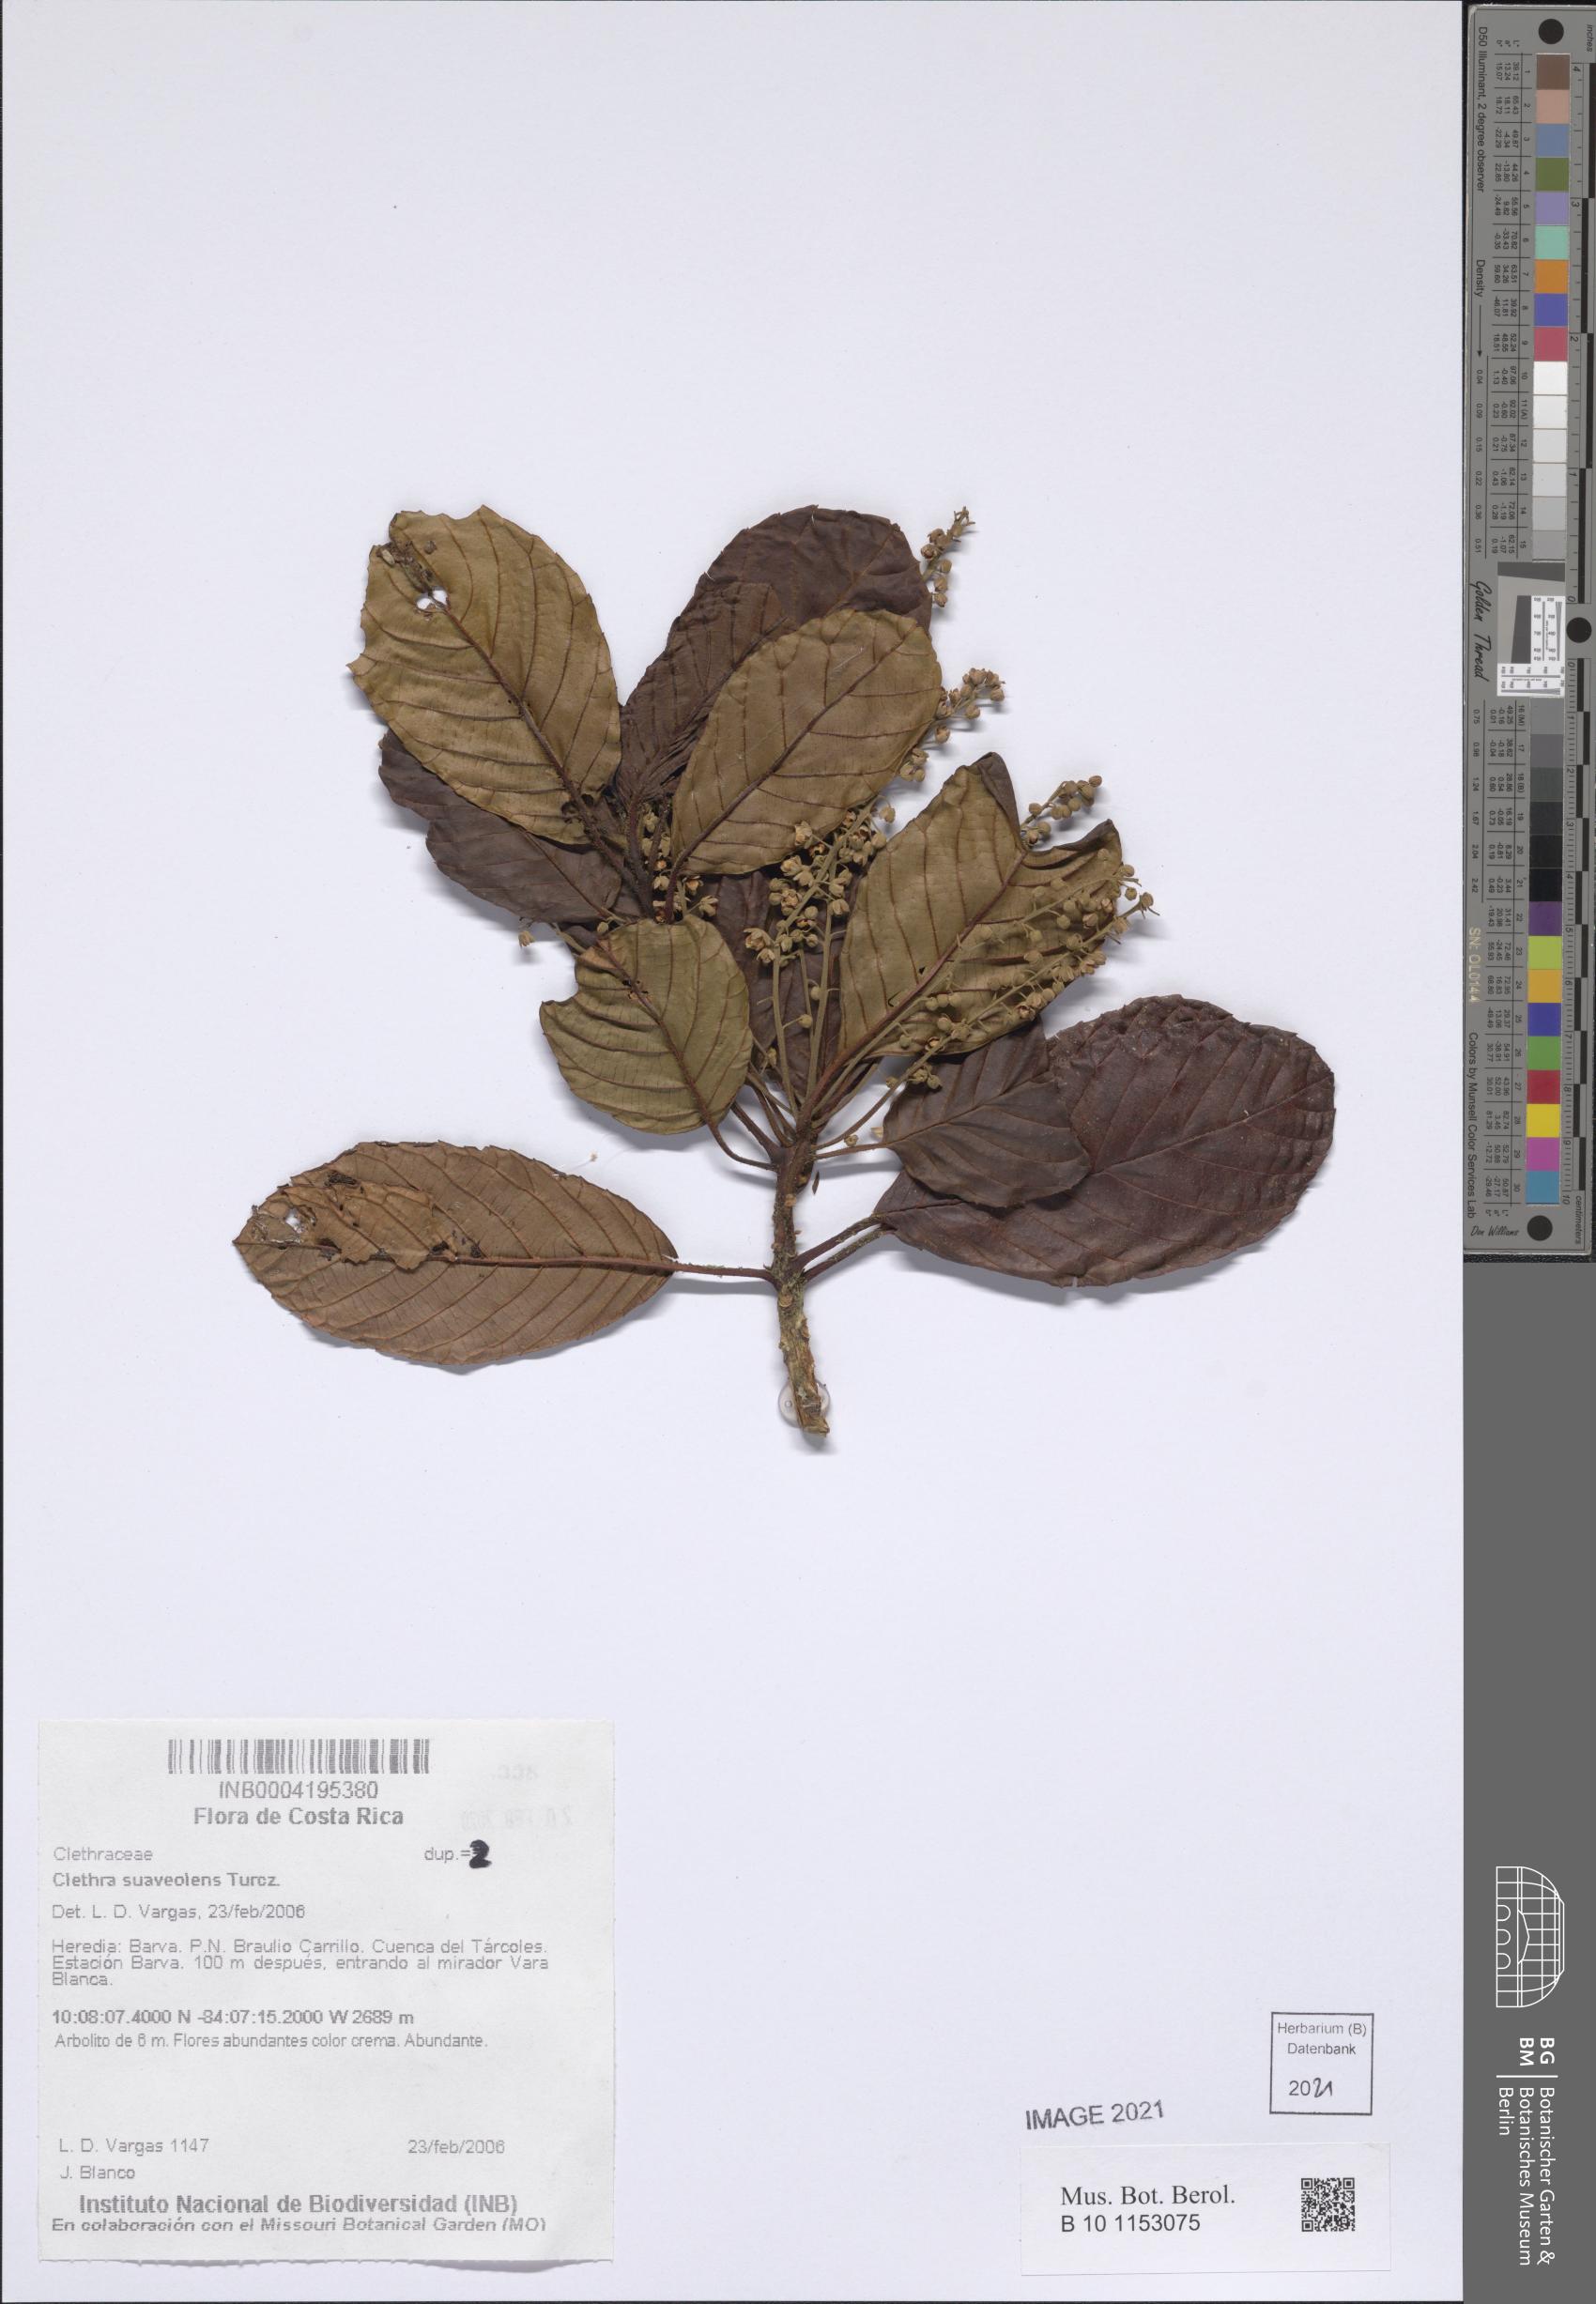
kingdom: Plantae
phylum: Tracheophyta
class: Magnoliopsida
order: Ericales
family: Clethraceae
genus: Clethra
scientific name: Clethra formosa
